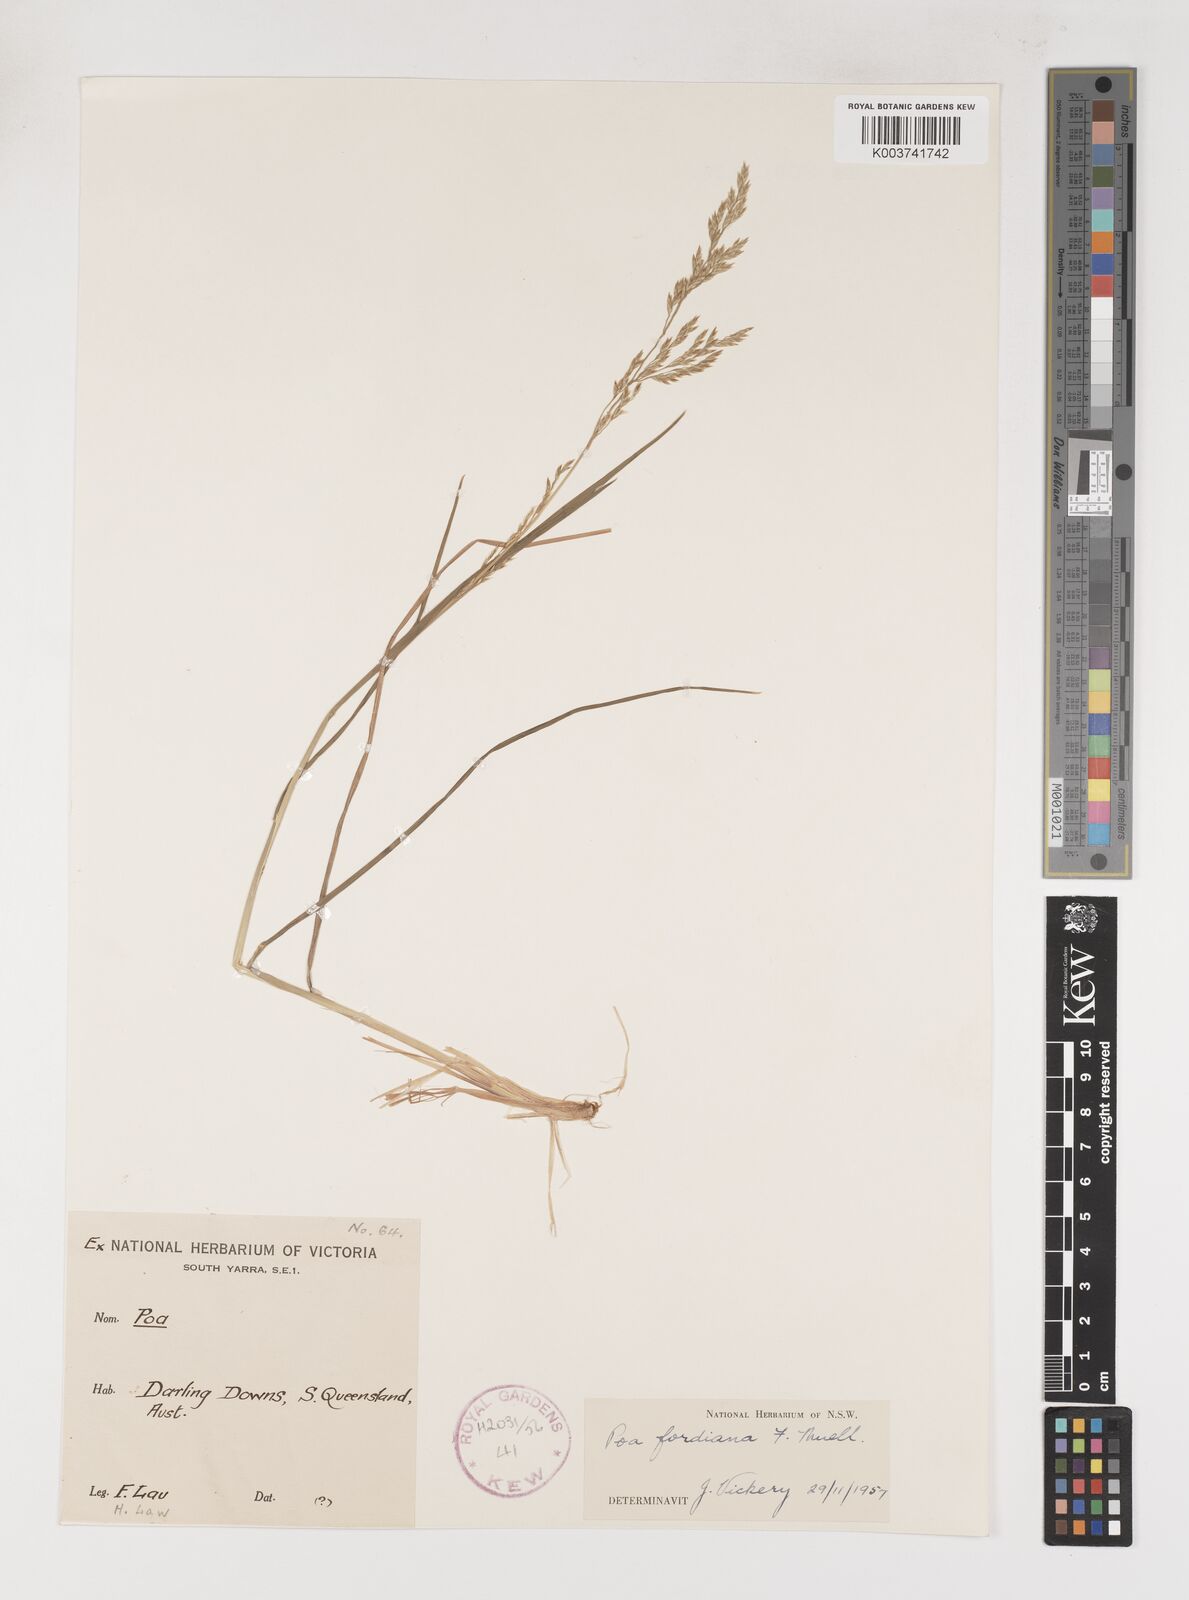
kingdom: Plantae
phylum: Tracheophyta
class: Liliopsida
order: Poales
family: Poaceae
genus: Poa
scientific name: Poa fordeana
